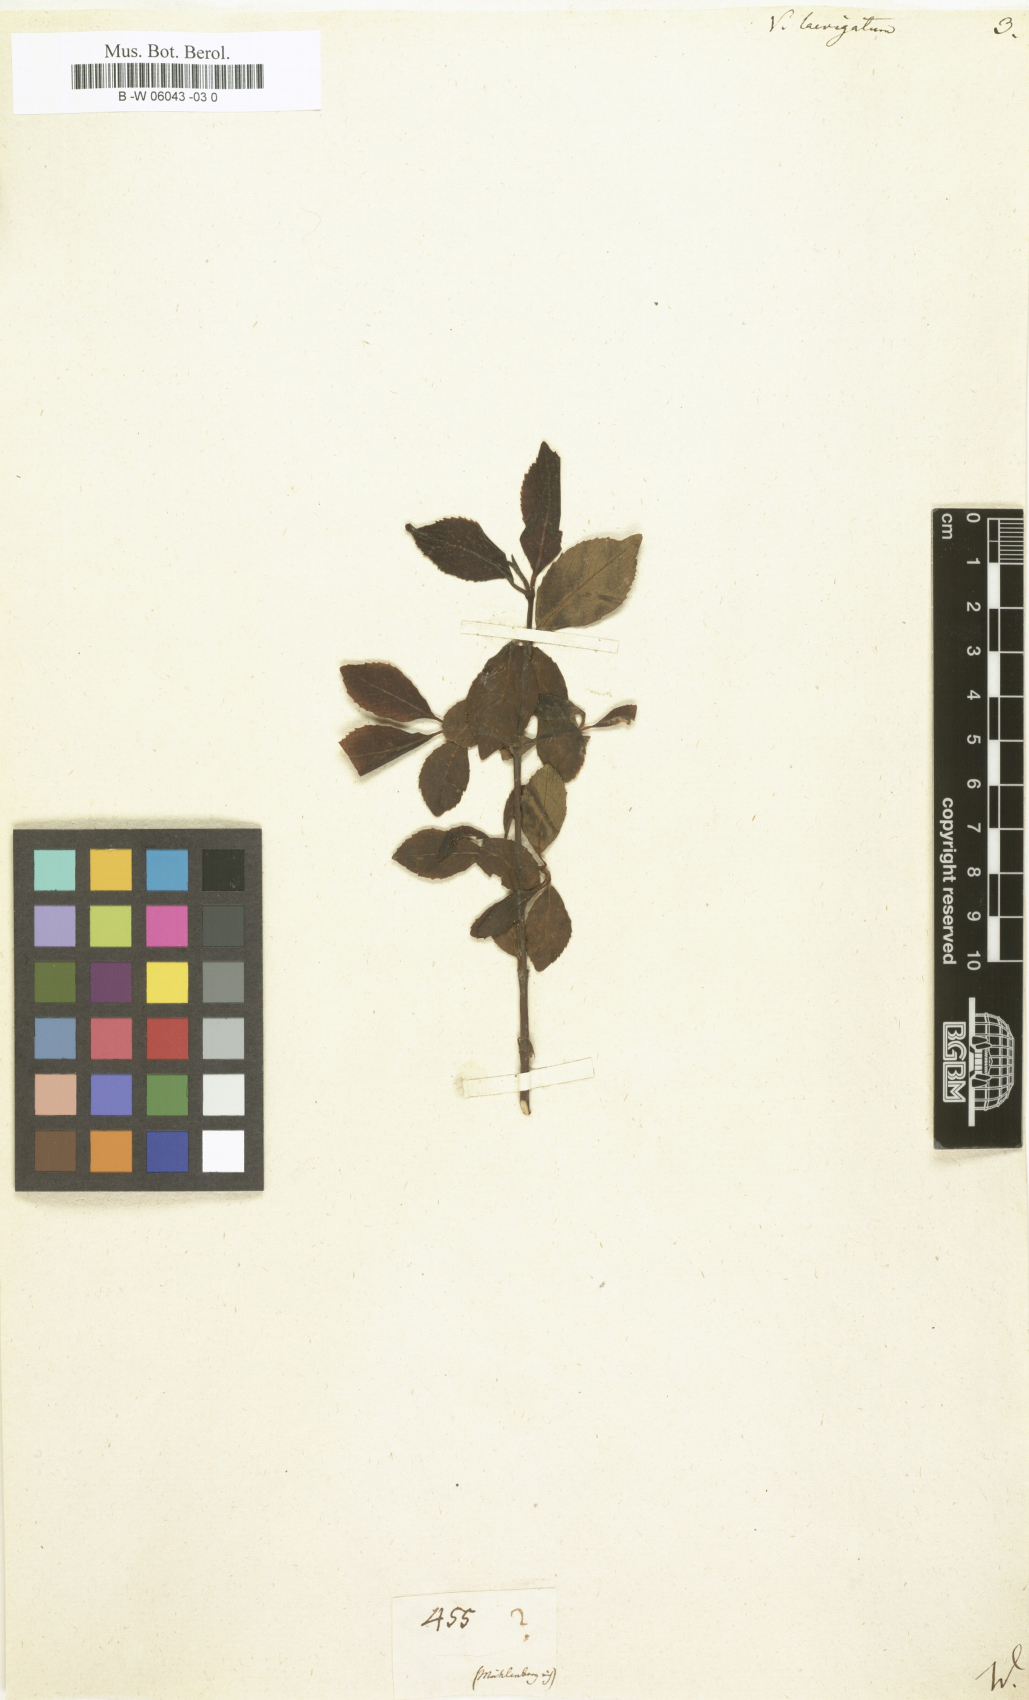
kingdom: Plantae
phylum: Tracheophyta
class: Magnoliopsida
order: Dipsacales
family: Viburnaceae
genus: Viburnum
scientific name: Viburnum
